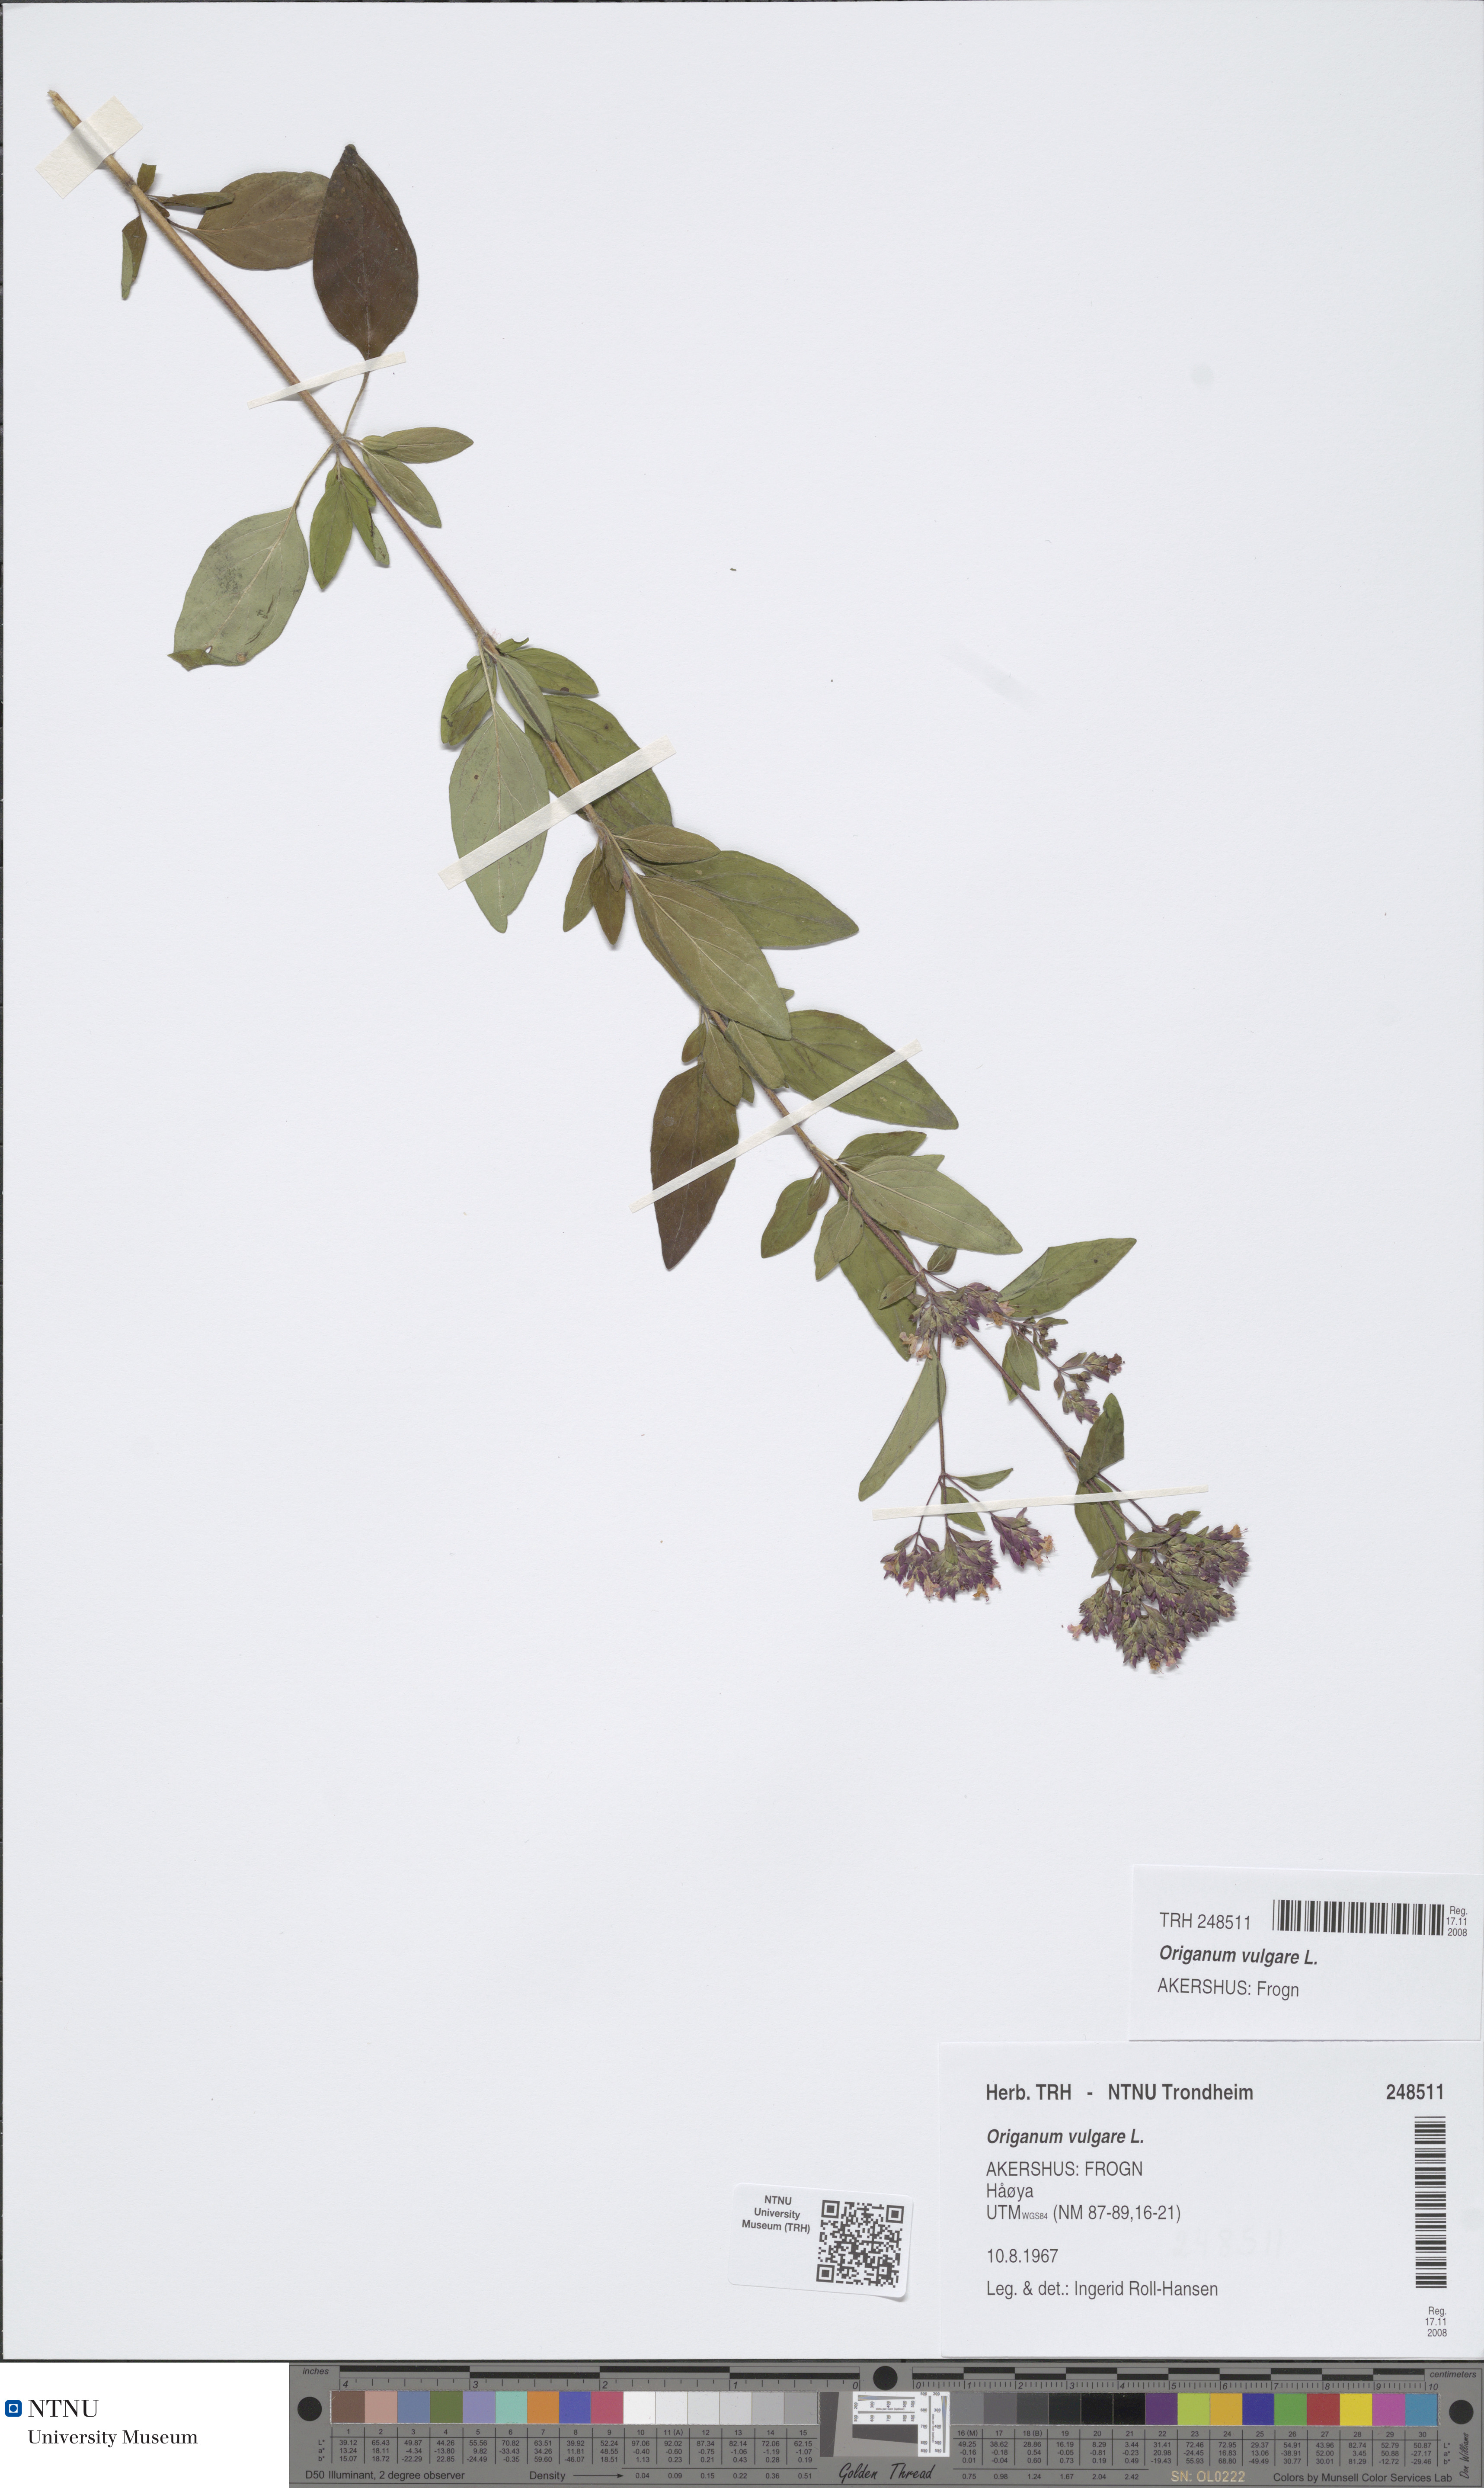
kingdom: Plantae
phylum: Tracheophyta
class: Magnoliopsida
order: Lamiales
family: Lamiaceae
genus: Origanum
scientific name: Origanum vulgare
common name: Wild marjoram
